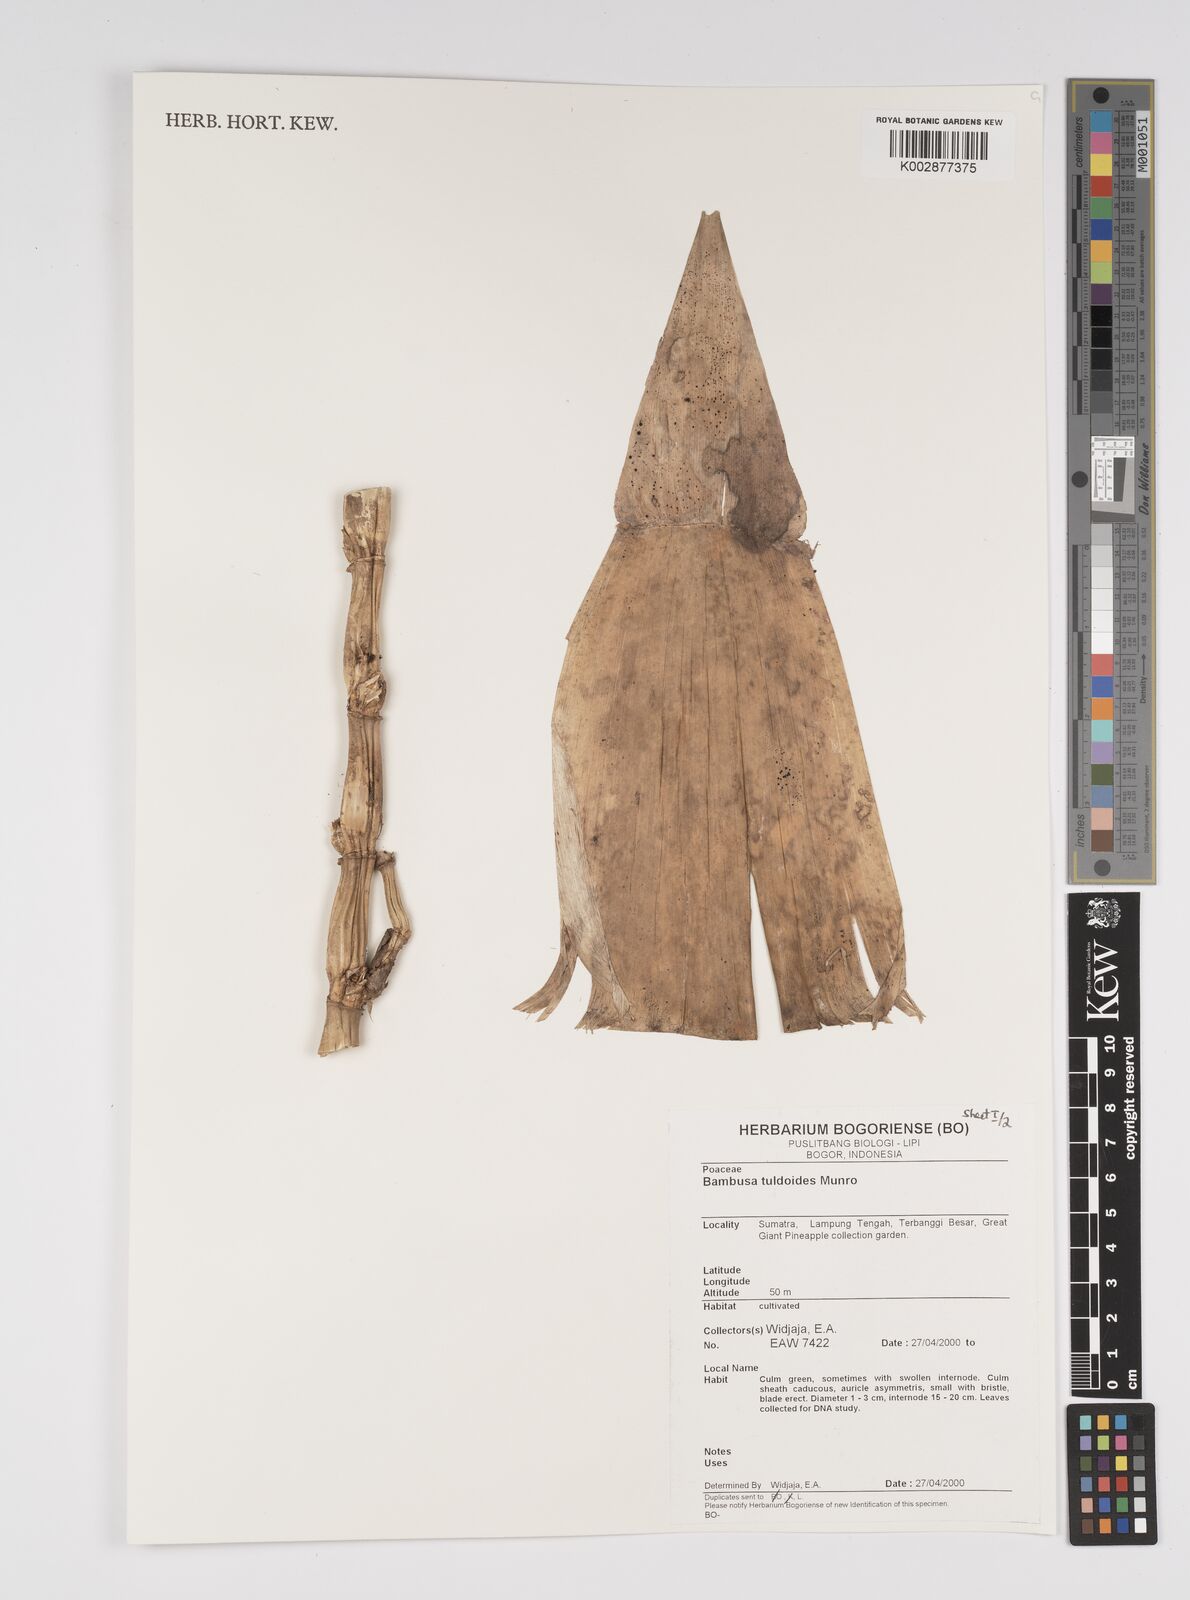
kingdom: Plantae
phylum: Tracheophyta
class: Liliopsida
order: Poales
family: Poaceae
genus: Bambusa
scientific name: Bambusa tuldoides
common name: Verdant bamboo
